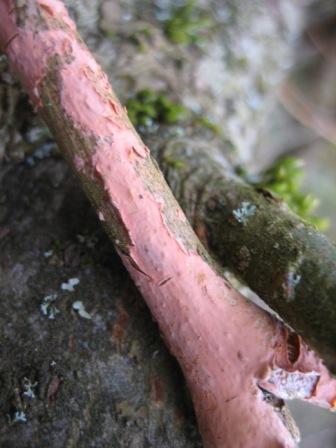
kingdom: Fungi
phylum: Basidiomycota
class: Agaricomycetes
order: Russulales
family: Peniophoraceae
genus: Peniophora
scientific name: Peniophora incarnata
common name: laksefarvet voksskind
